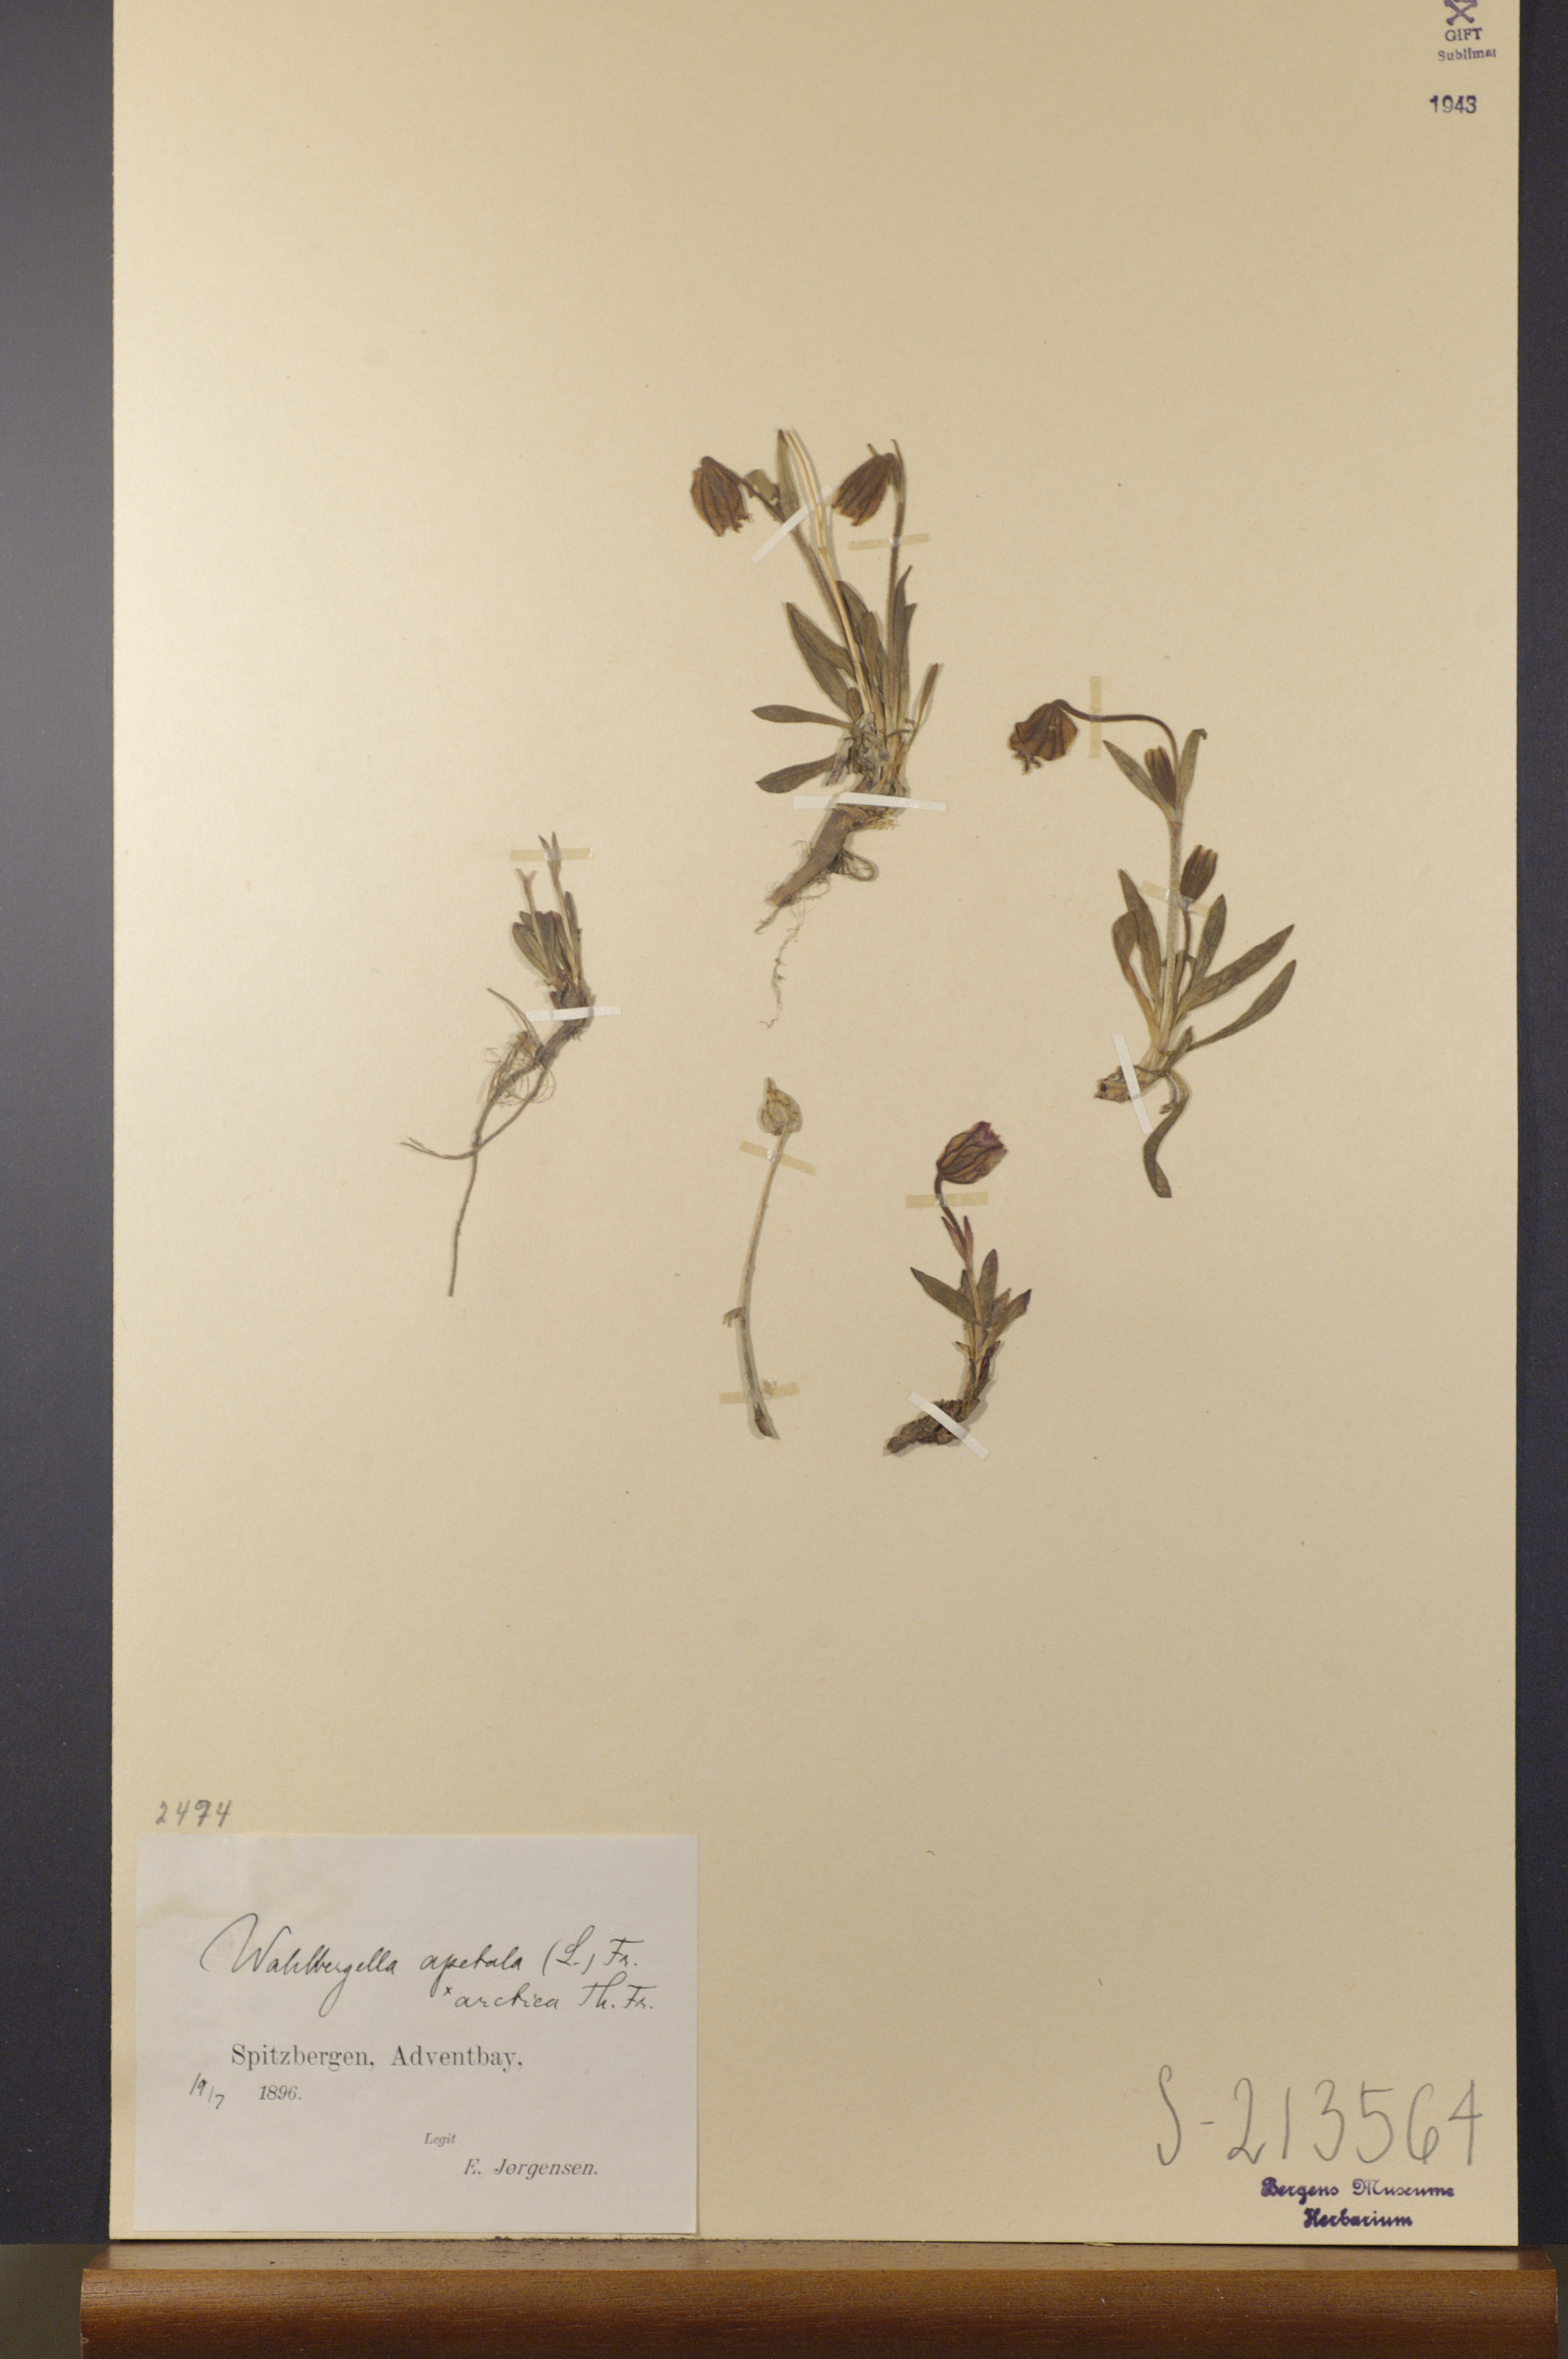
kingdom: Plantae
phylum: Tracheophyta
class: Magnoliopsida
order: Caryophyllales
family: Caryophyllaceae
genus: Silene
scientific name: Silene uralensis
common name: Nodding campion
